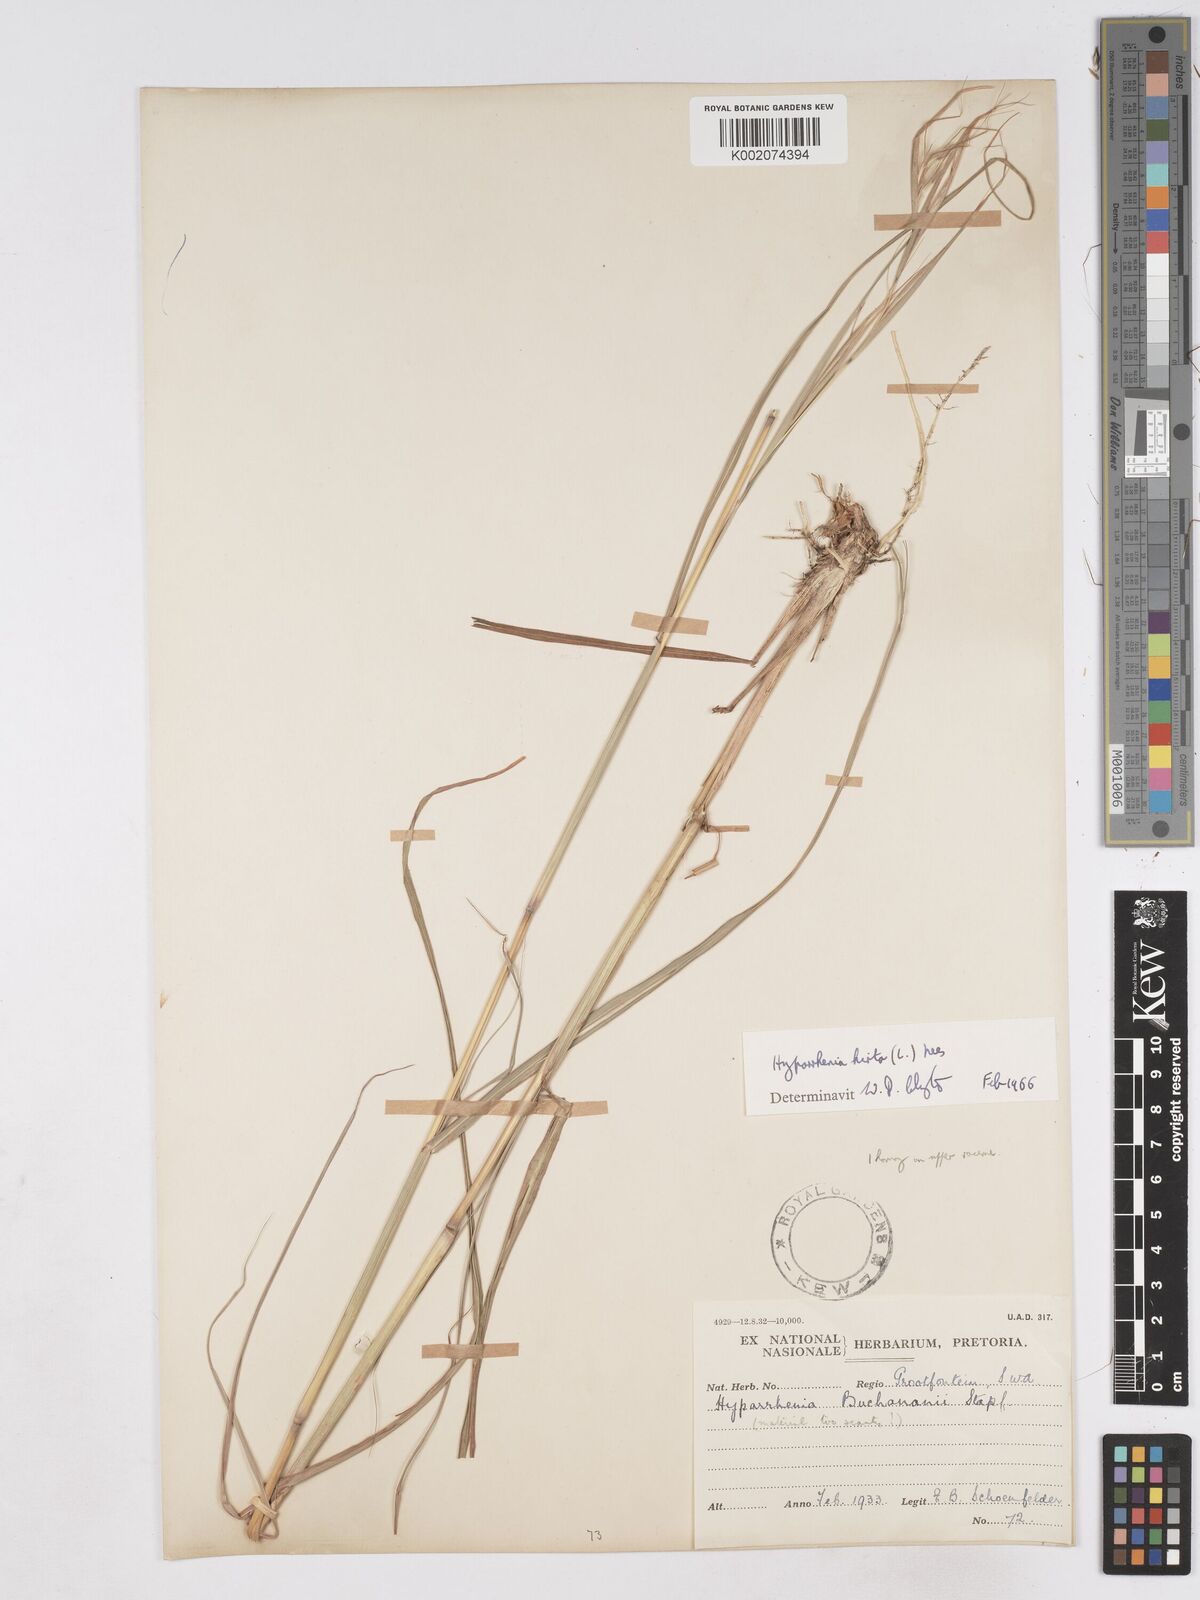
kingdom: Plantae
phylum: Tracheophyta
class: Liliopsida
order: Poales
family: Poaceae
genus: Hyparrhenia
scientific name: Hyparrhenia hirta
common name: Thatching grass
